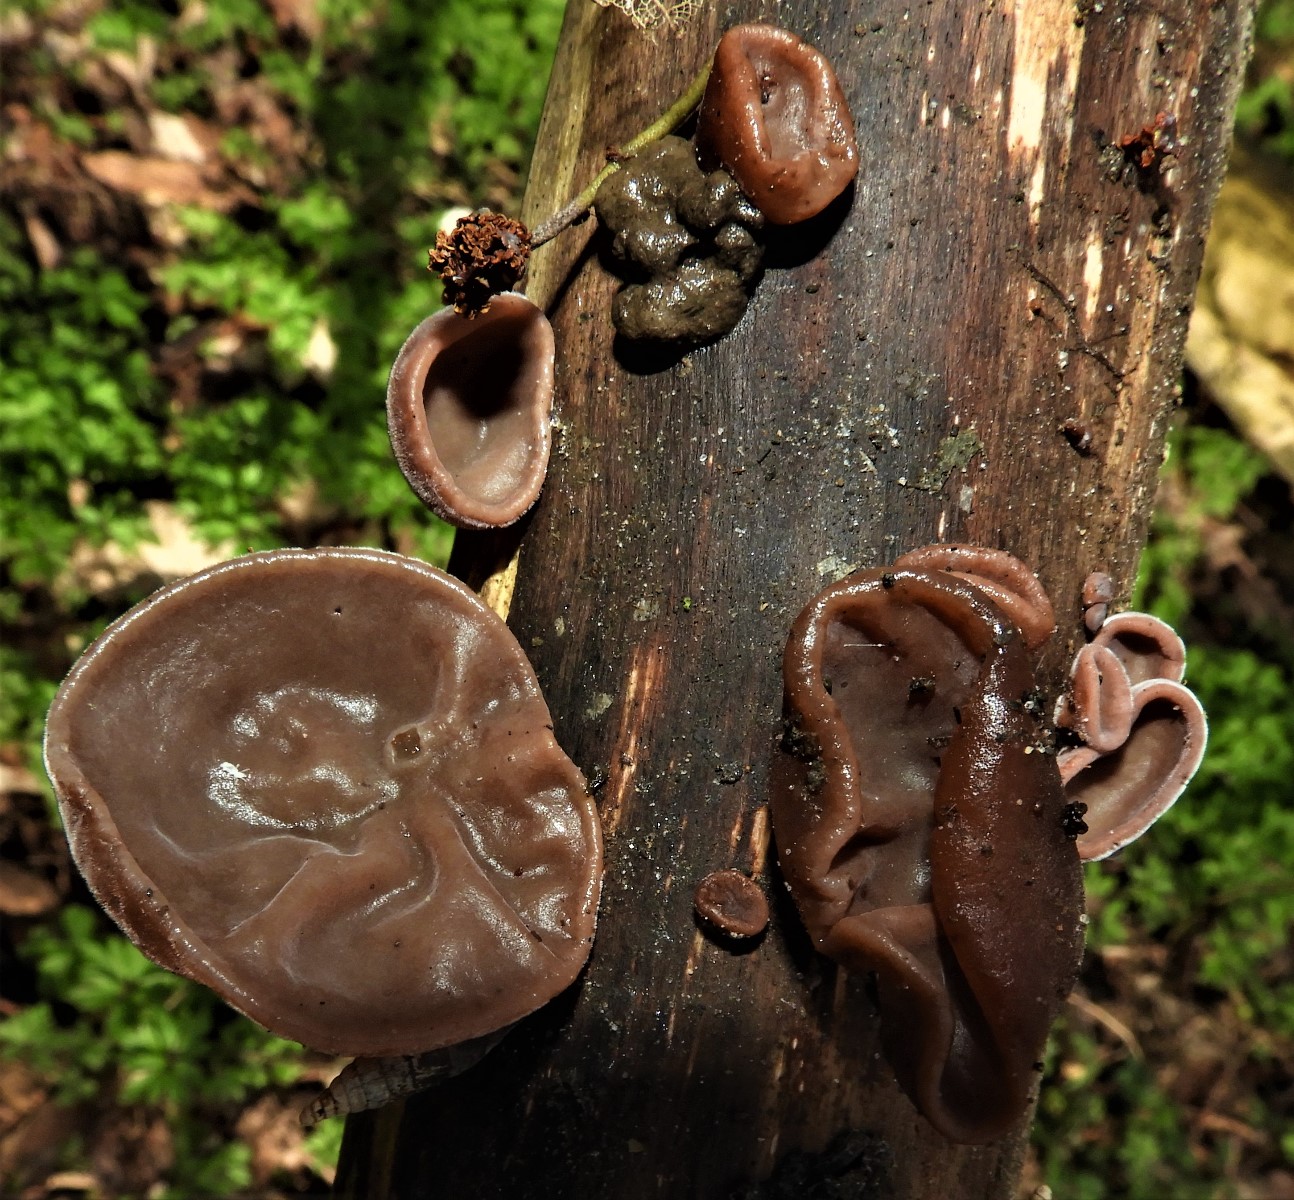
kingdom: Fungi
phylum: Basidiomycota
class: Agaricomycetes
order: Auriculariales
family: Auriculariaceae
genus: Auricularia
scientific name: Auricularia auricula-judae
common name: almindelig judasøre
